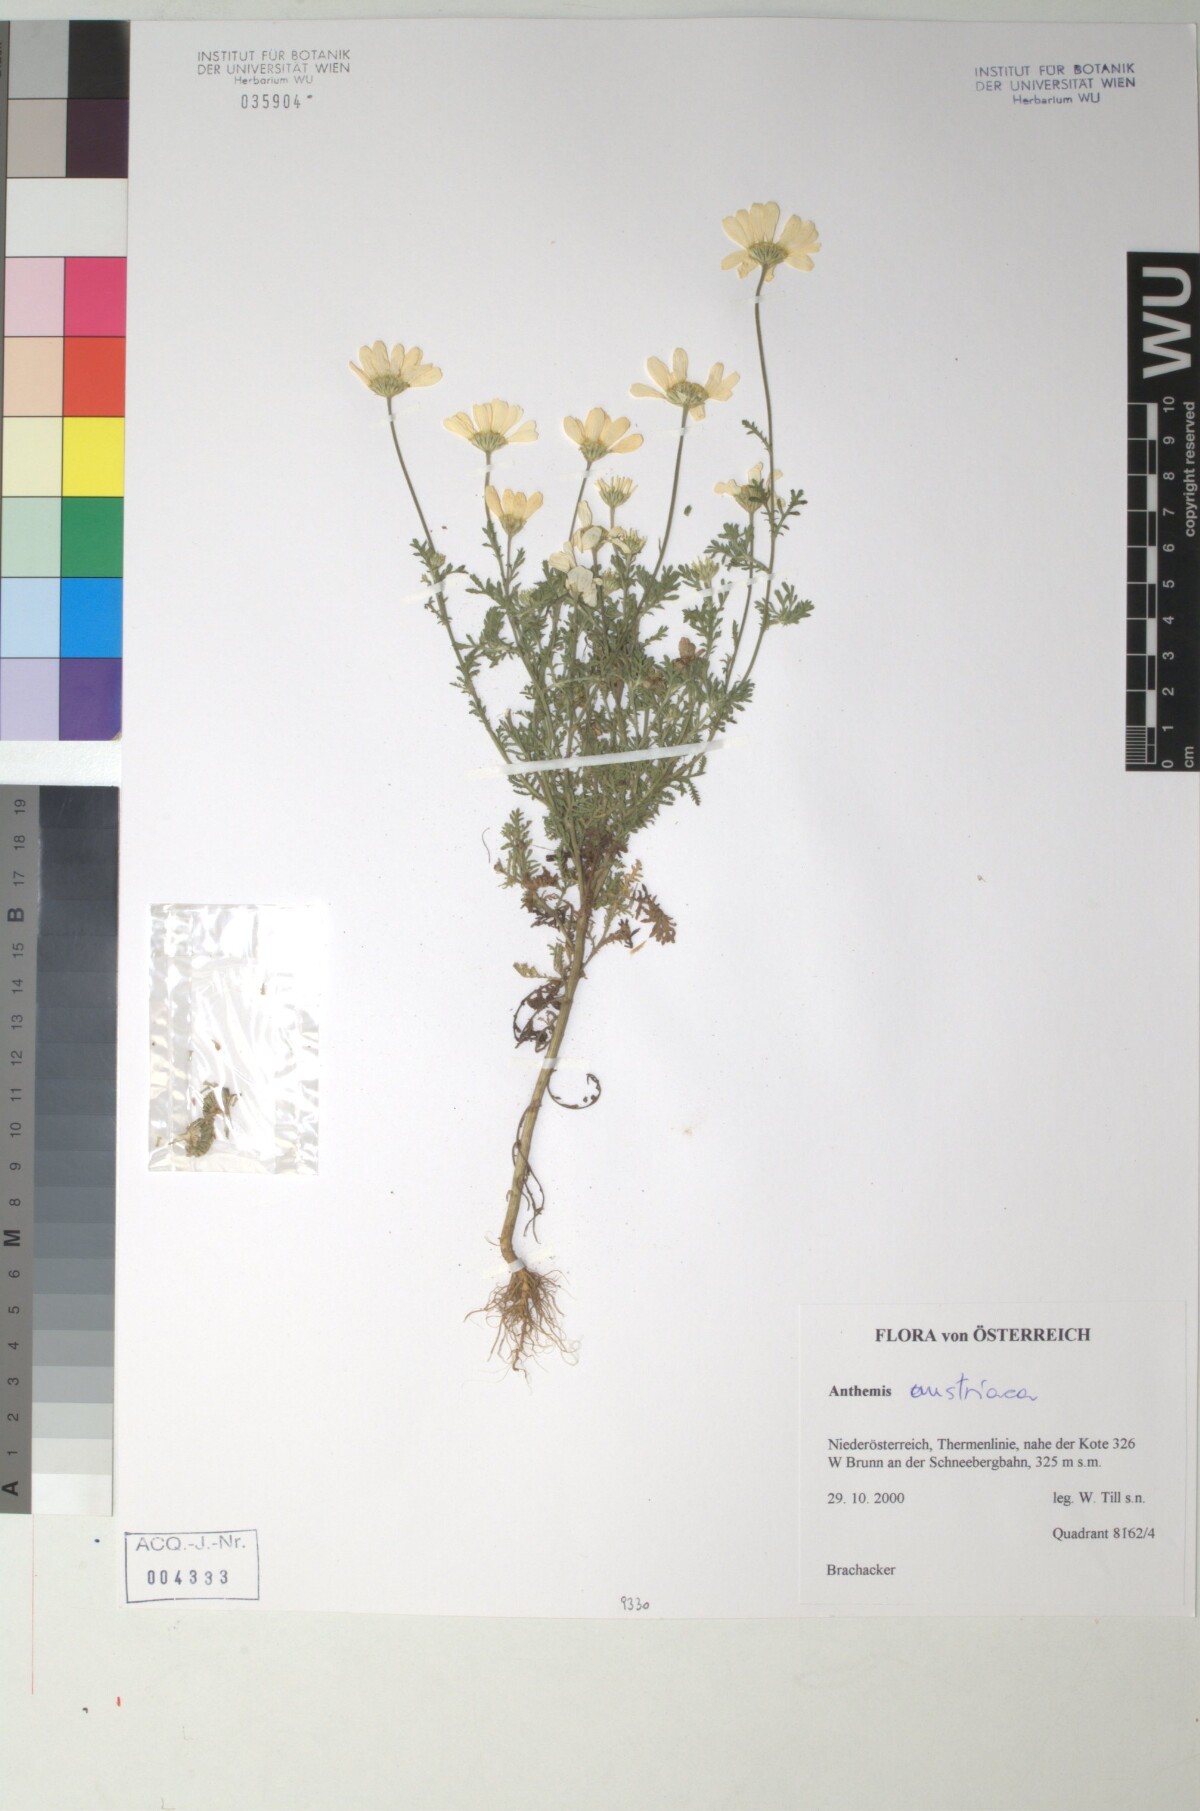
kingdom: Plantae
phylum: Tracheophyta
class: Magnoliopsida
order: Asterales
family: Asteraceae
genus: Cota
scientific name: Cota austriaca
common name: Austrian chamomile
